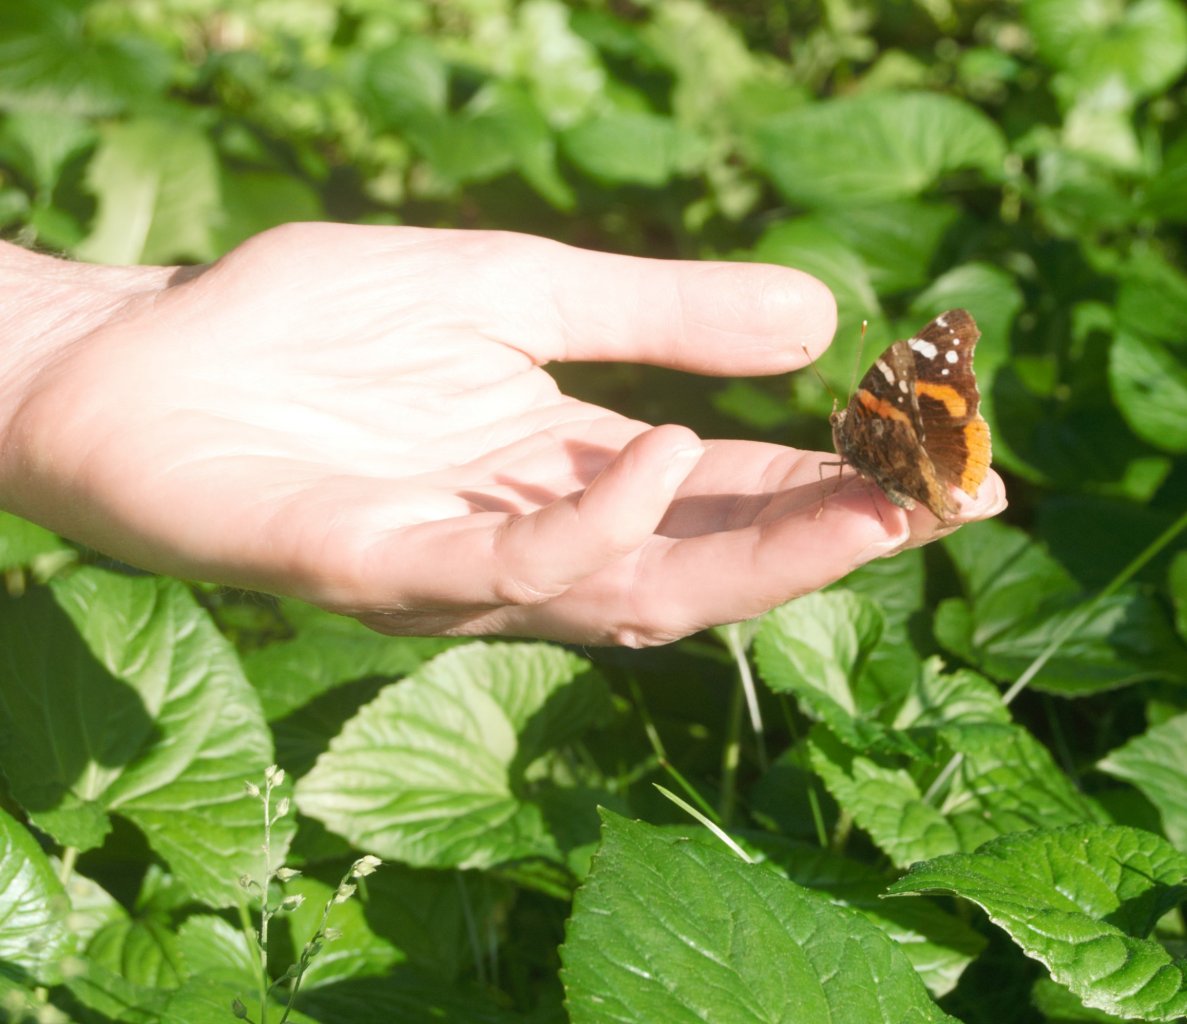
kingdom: Animalia
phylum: Arthropoda
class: Insecta
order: Lepidoptera
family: Nymphalidae
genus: Vanessa
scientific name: Vanessa atalanta
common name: Red Admiral
